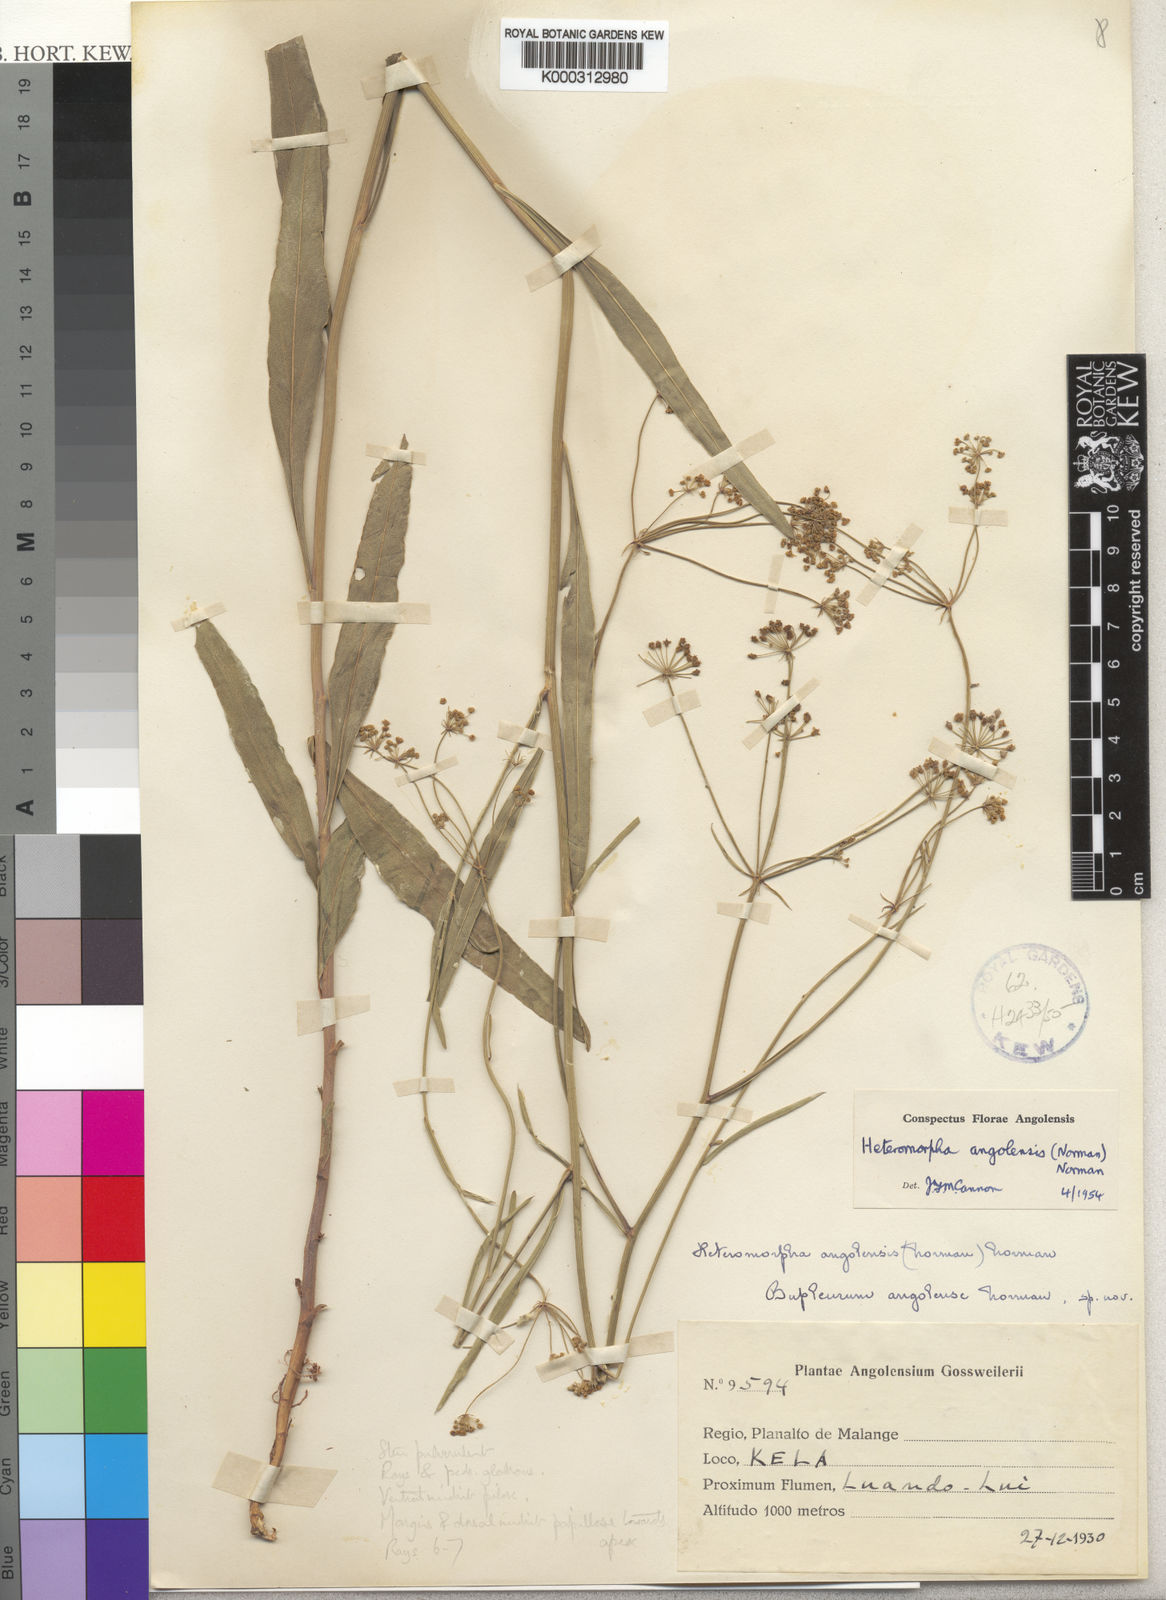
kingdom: Plantae
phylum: Tracheophyta
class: Magnoliopsida
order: Apiales
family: Apiaceae
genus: Heteromorpha
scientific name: Heteromorpha gossweileri
